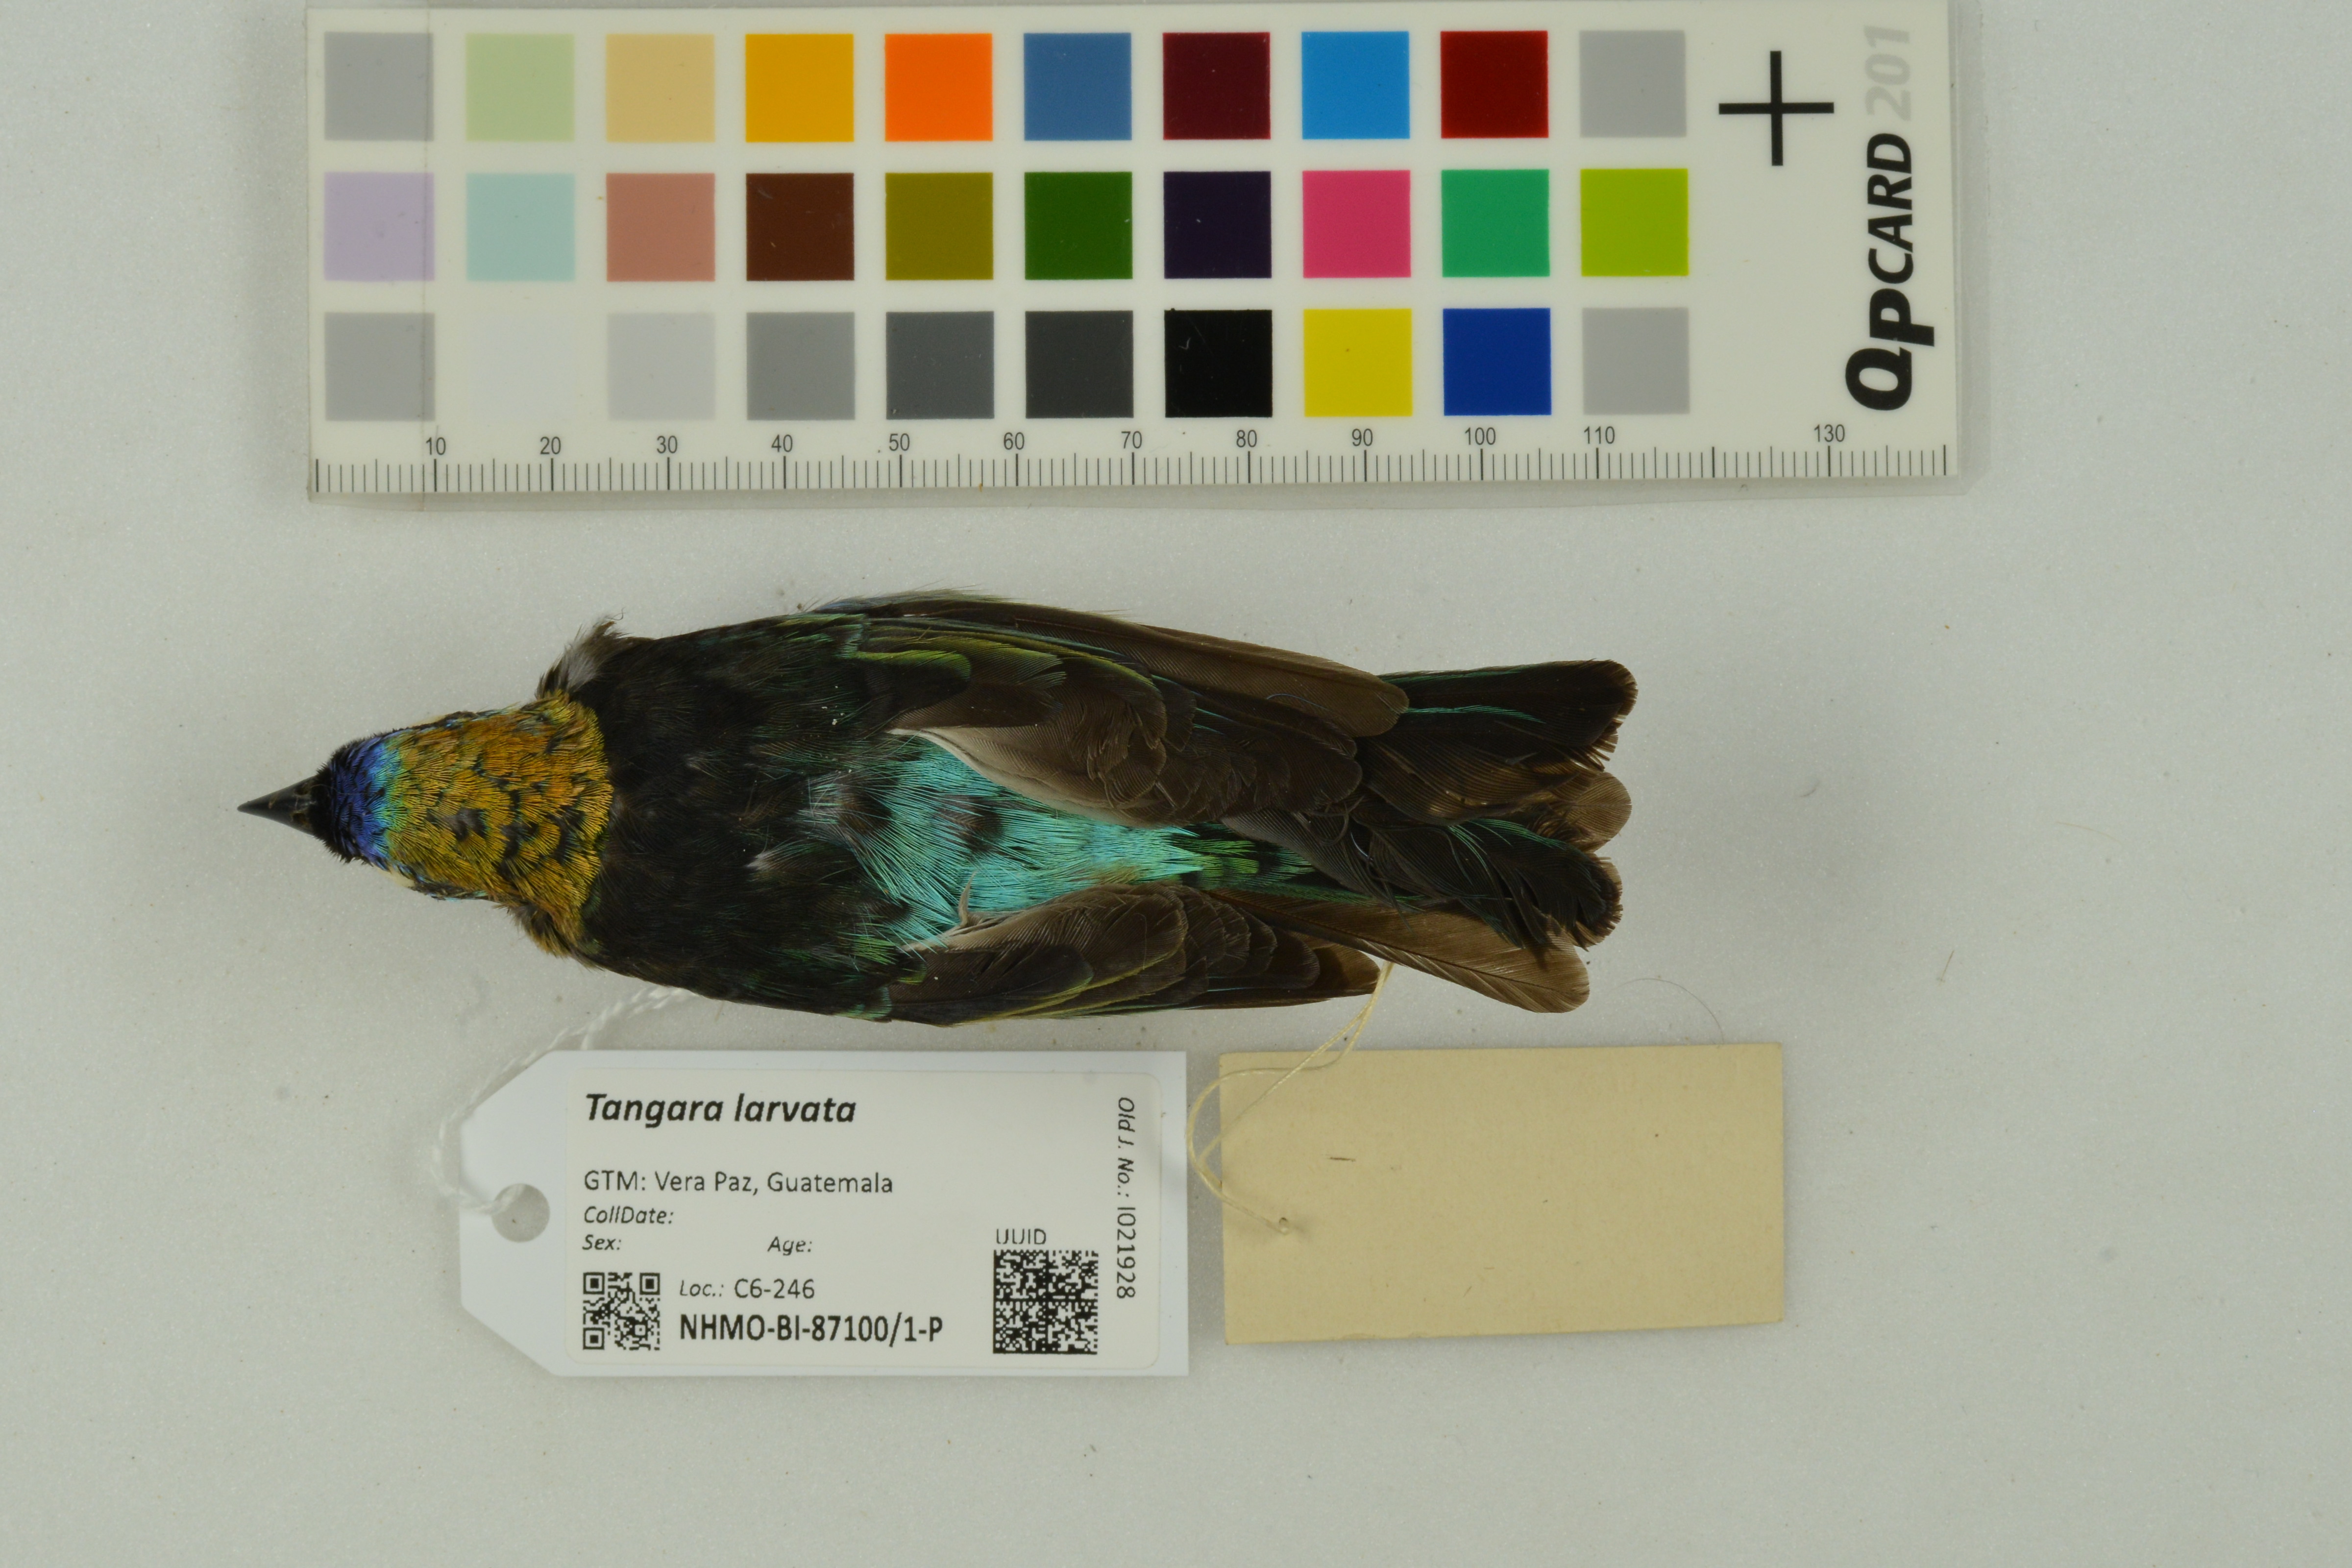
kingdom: Animalia
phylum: Chordata
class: Aves
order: Passeriformes
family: Thraupidae
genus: Stilpnia
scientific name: Stilpnia larvata
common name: Golden-hooded tanager
